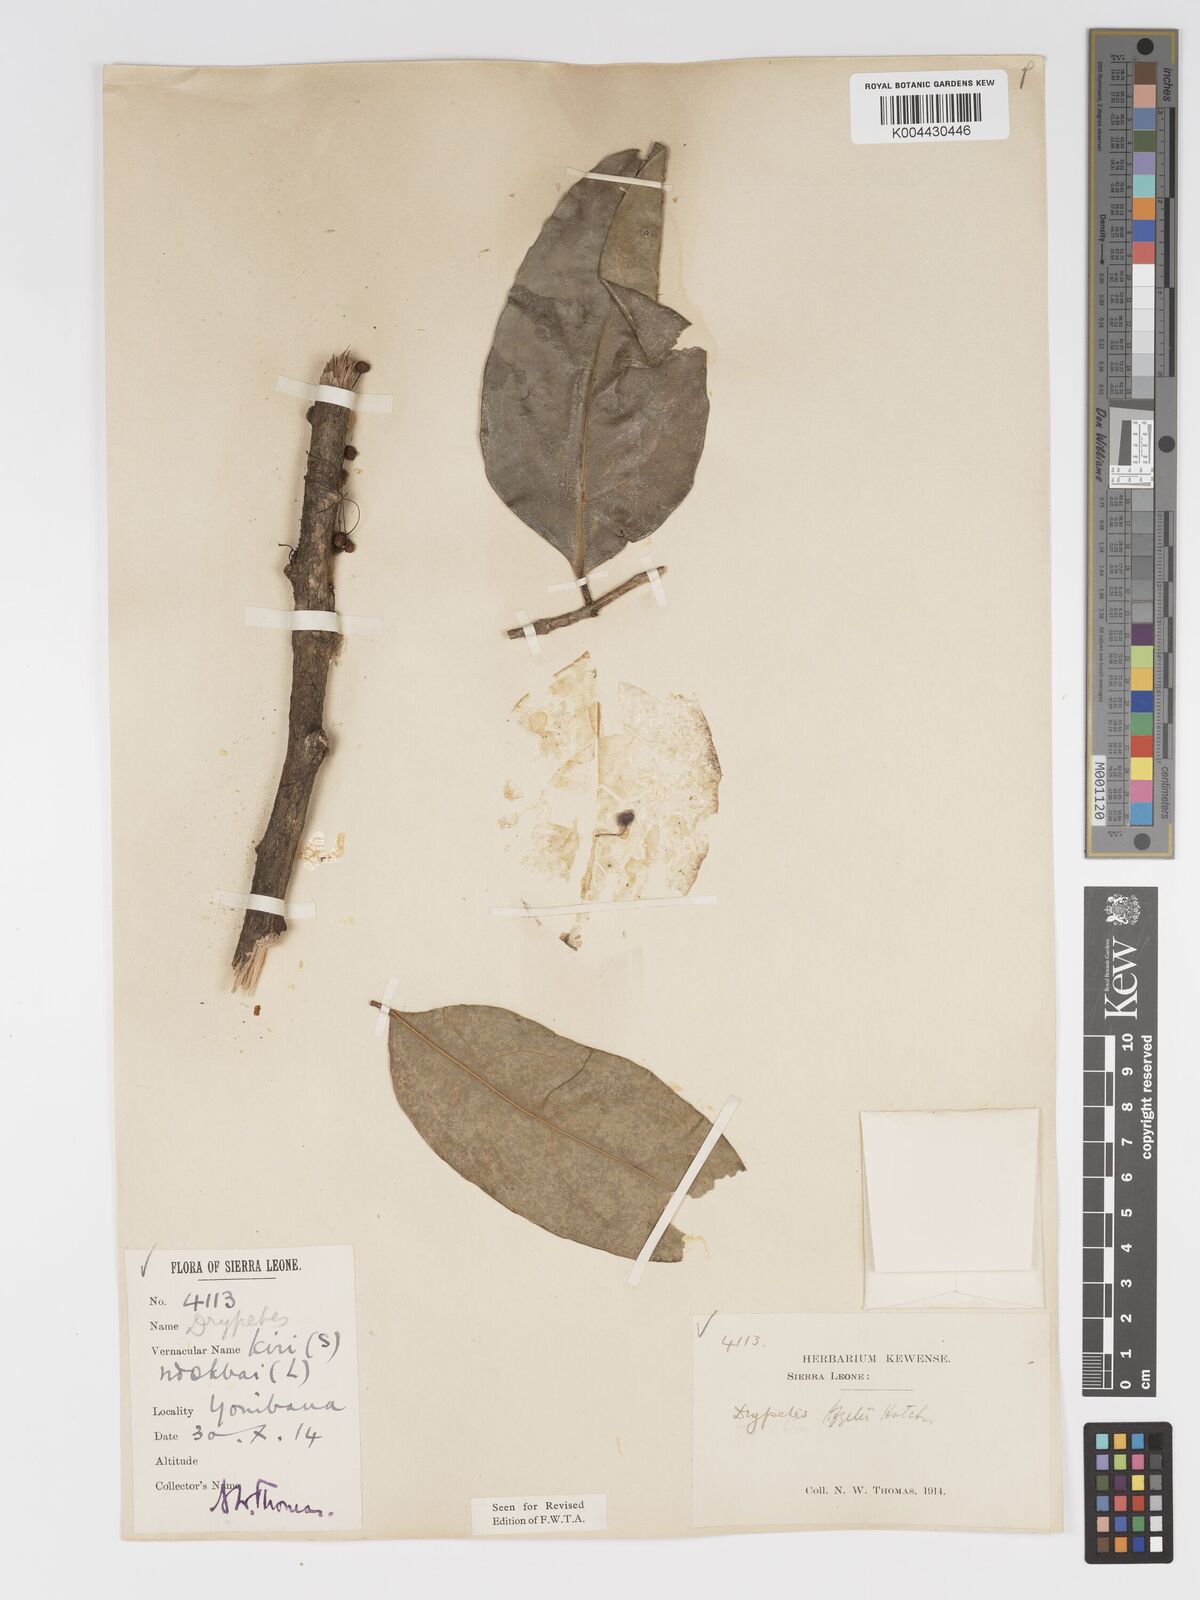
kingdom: Plantae
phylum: Tracheophyta
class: Magnoliopsida
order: Malpighiales
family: Putranjivaceae
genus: Drypetes
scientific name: Drypetes afzelii
